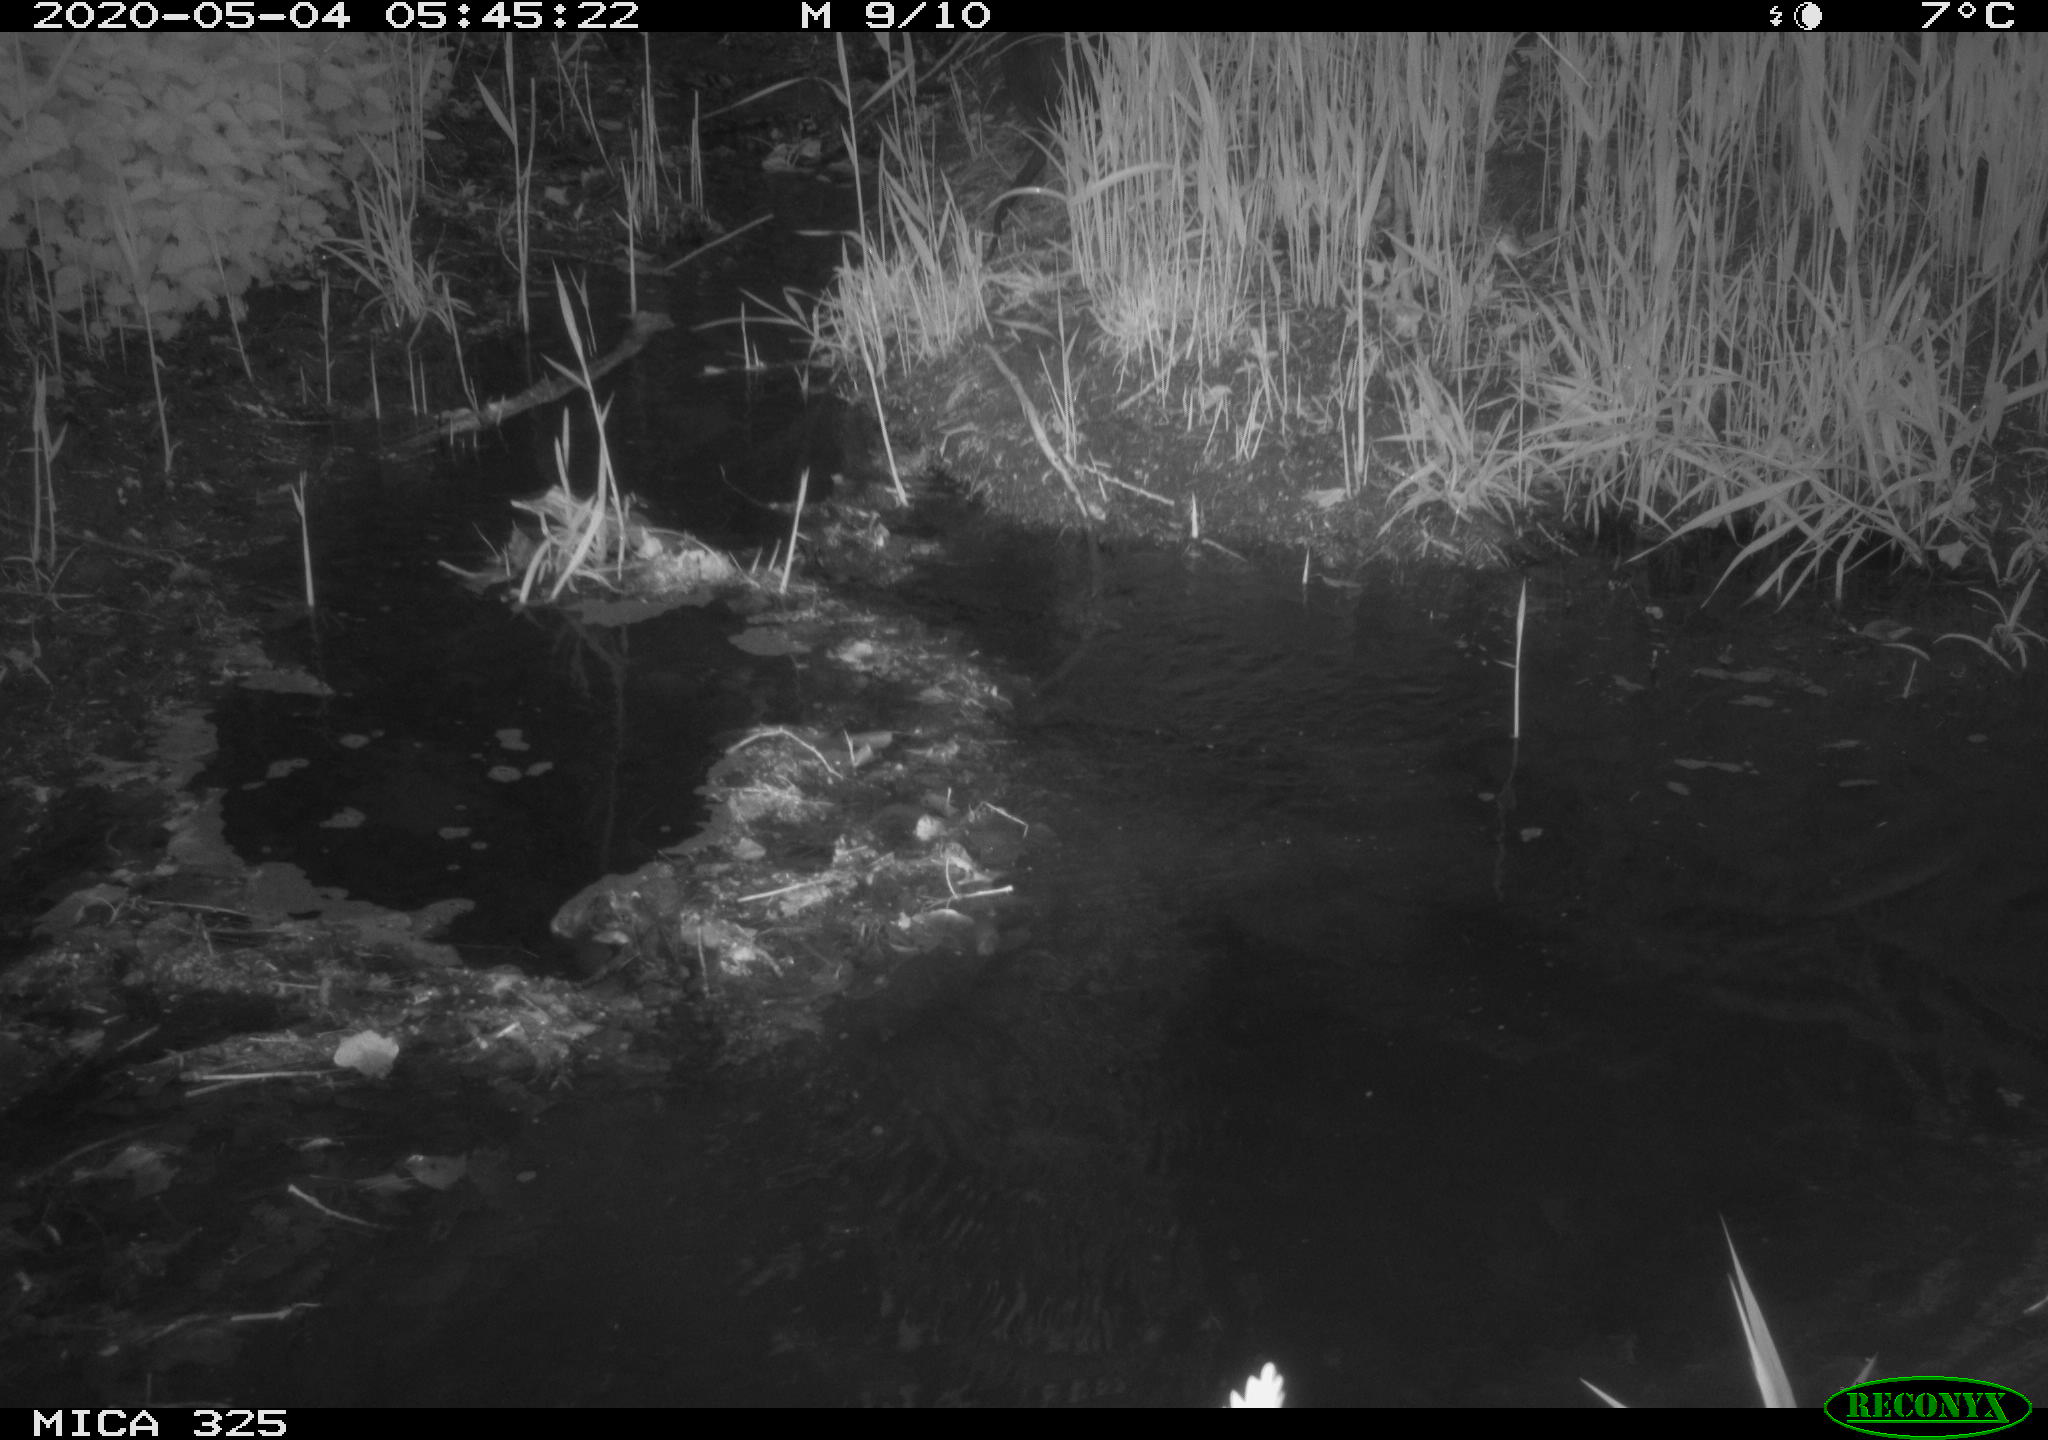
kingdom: Animalia
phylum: Chordata
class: Mammalia
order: Rodentia
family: Myocastoridae
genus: Myocastor
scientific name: Myocastor coypus
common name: Coypu
